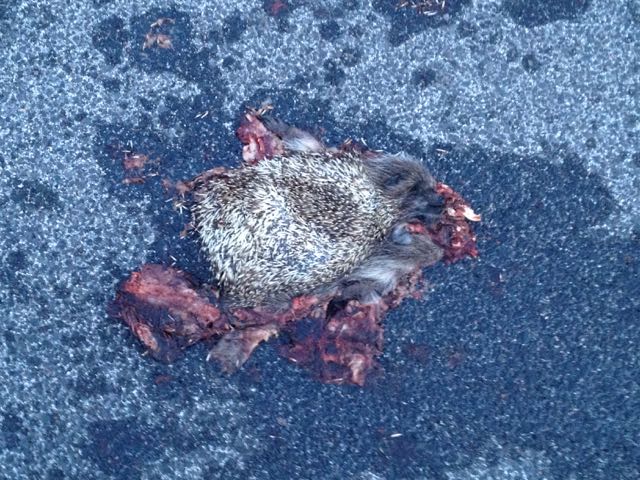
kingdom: Animalia
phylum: Chordata
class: Mammalia
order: Erinaceomorpha
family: Erinaceidae
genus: Erinaceus
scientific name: Erinaceus
